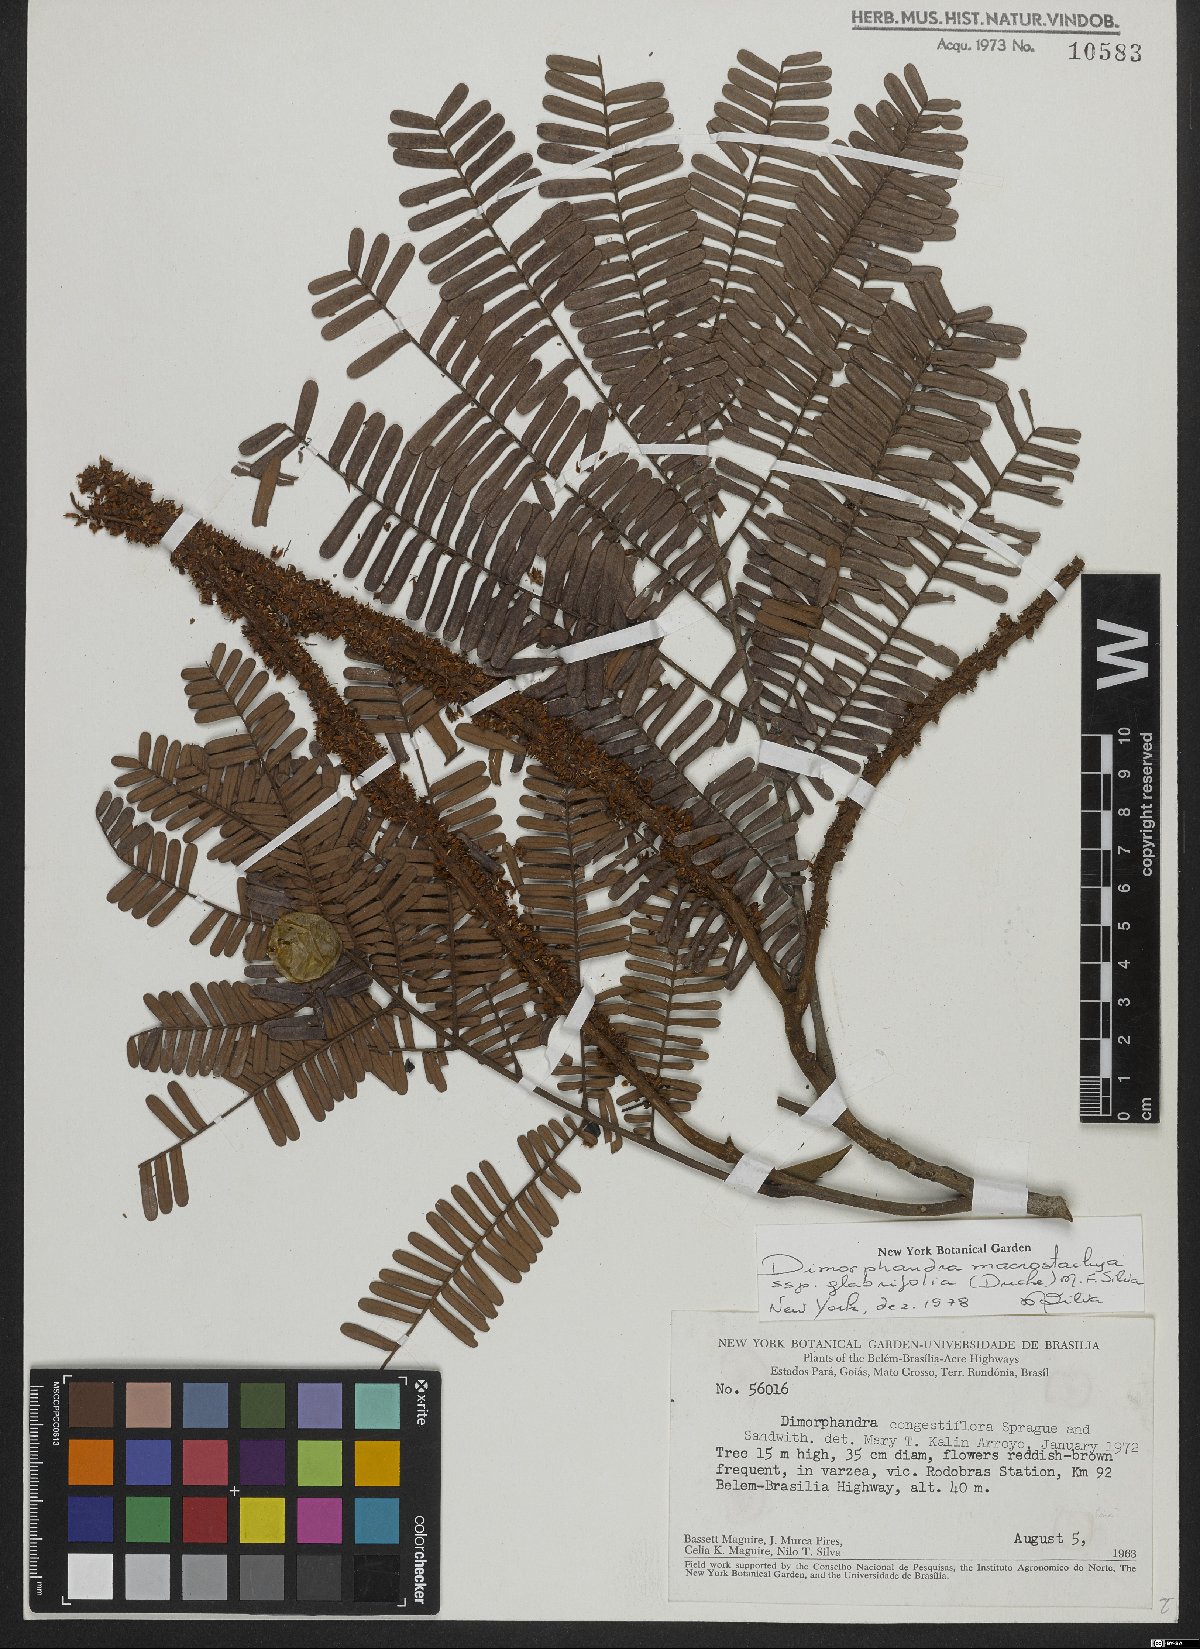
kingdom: Plantae
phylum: Tracheophyta
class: Magnoliopsida
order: Fabales
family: Fabaceae
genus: Dimorphandra
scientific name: Dimorphandra macrostachya
